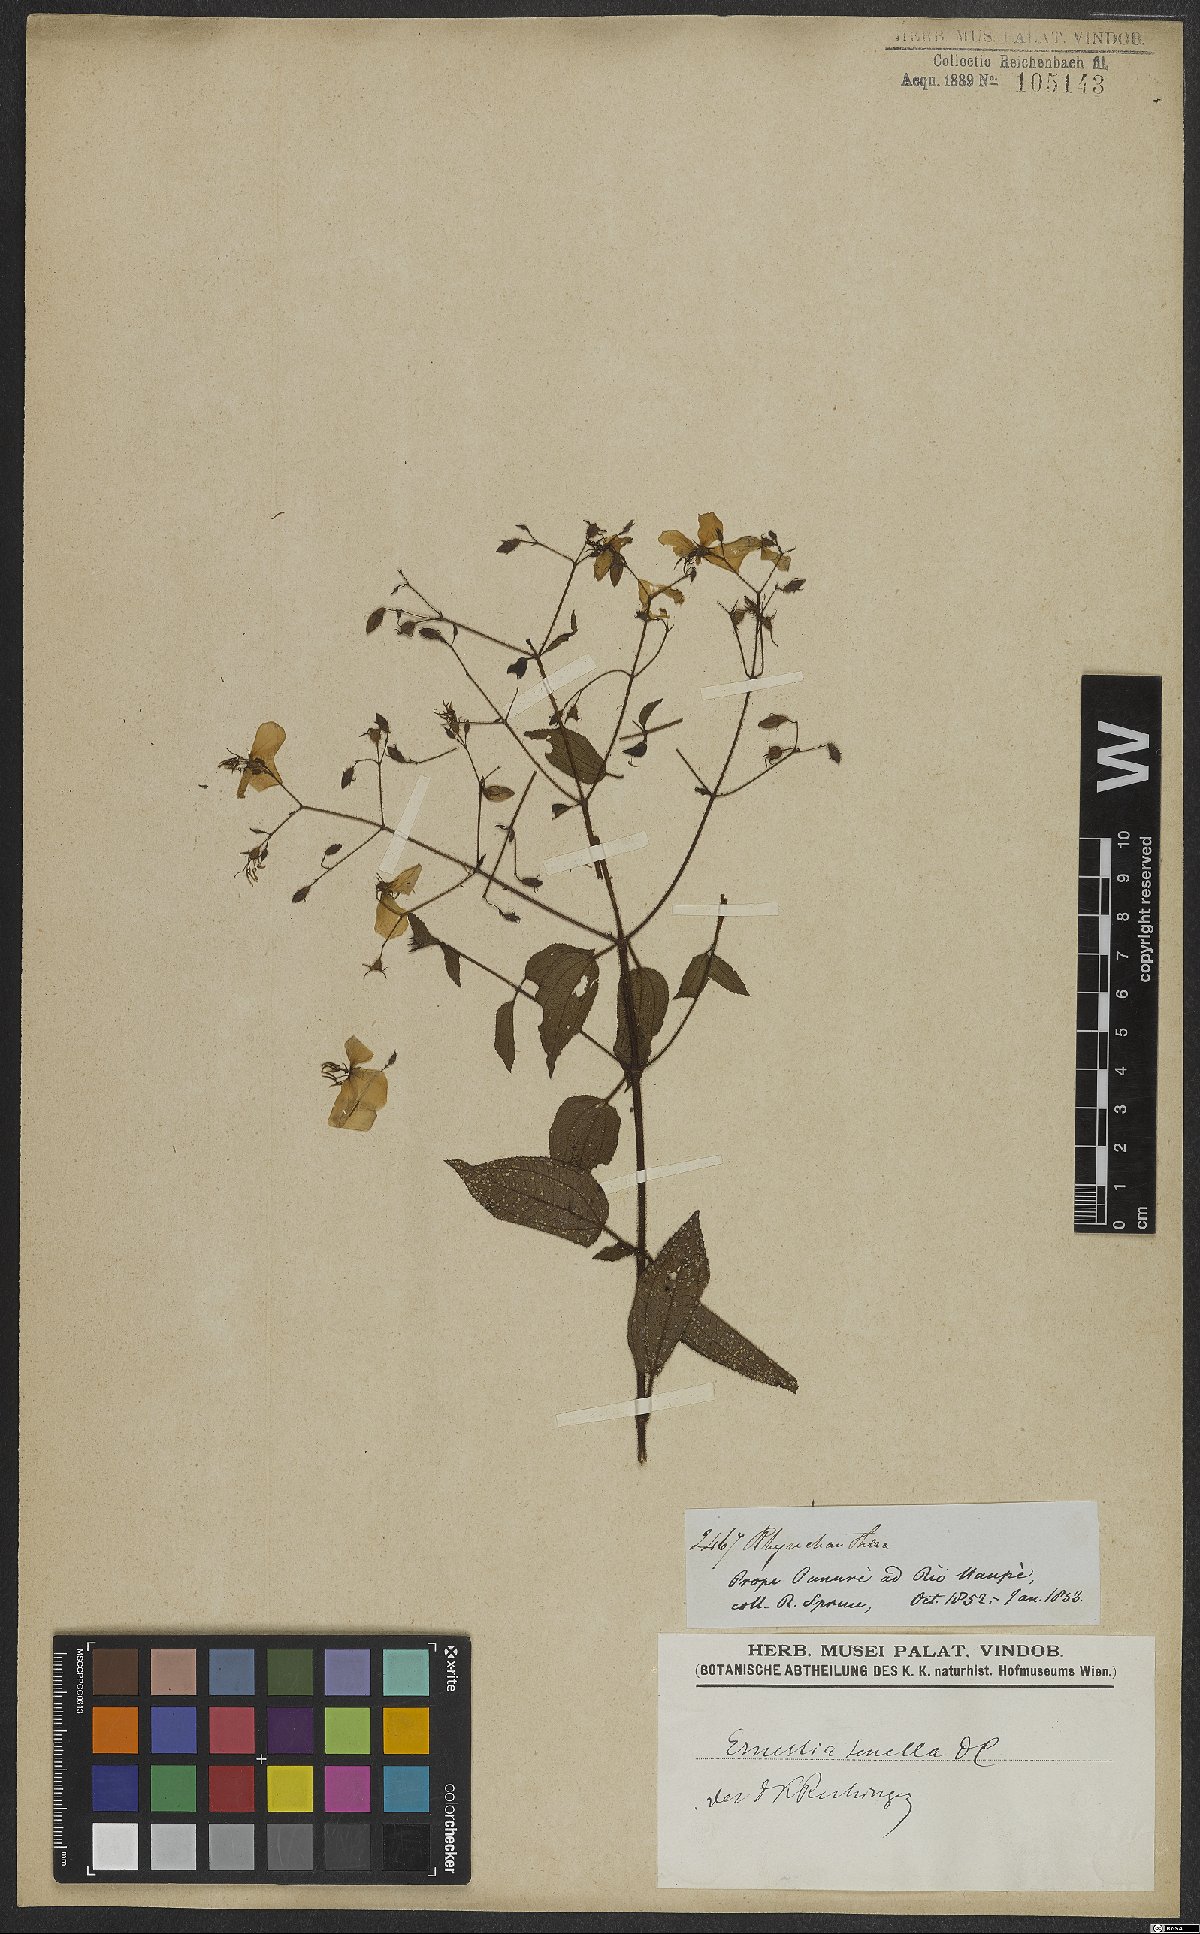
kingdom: Plantae
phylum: Tracheophyta
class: Magnoliopsida
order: Myrtales
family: Melastomataceae
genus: Ernestia
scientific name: Ernestia tenella
